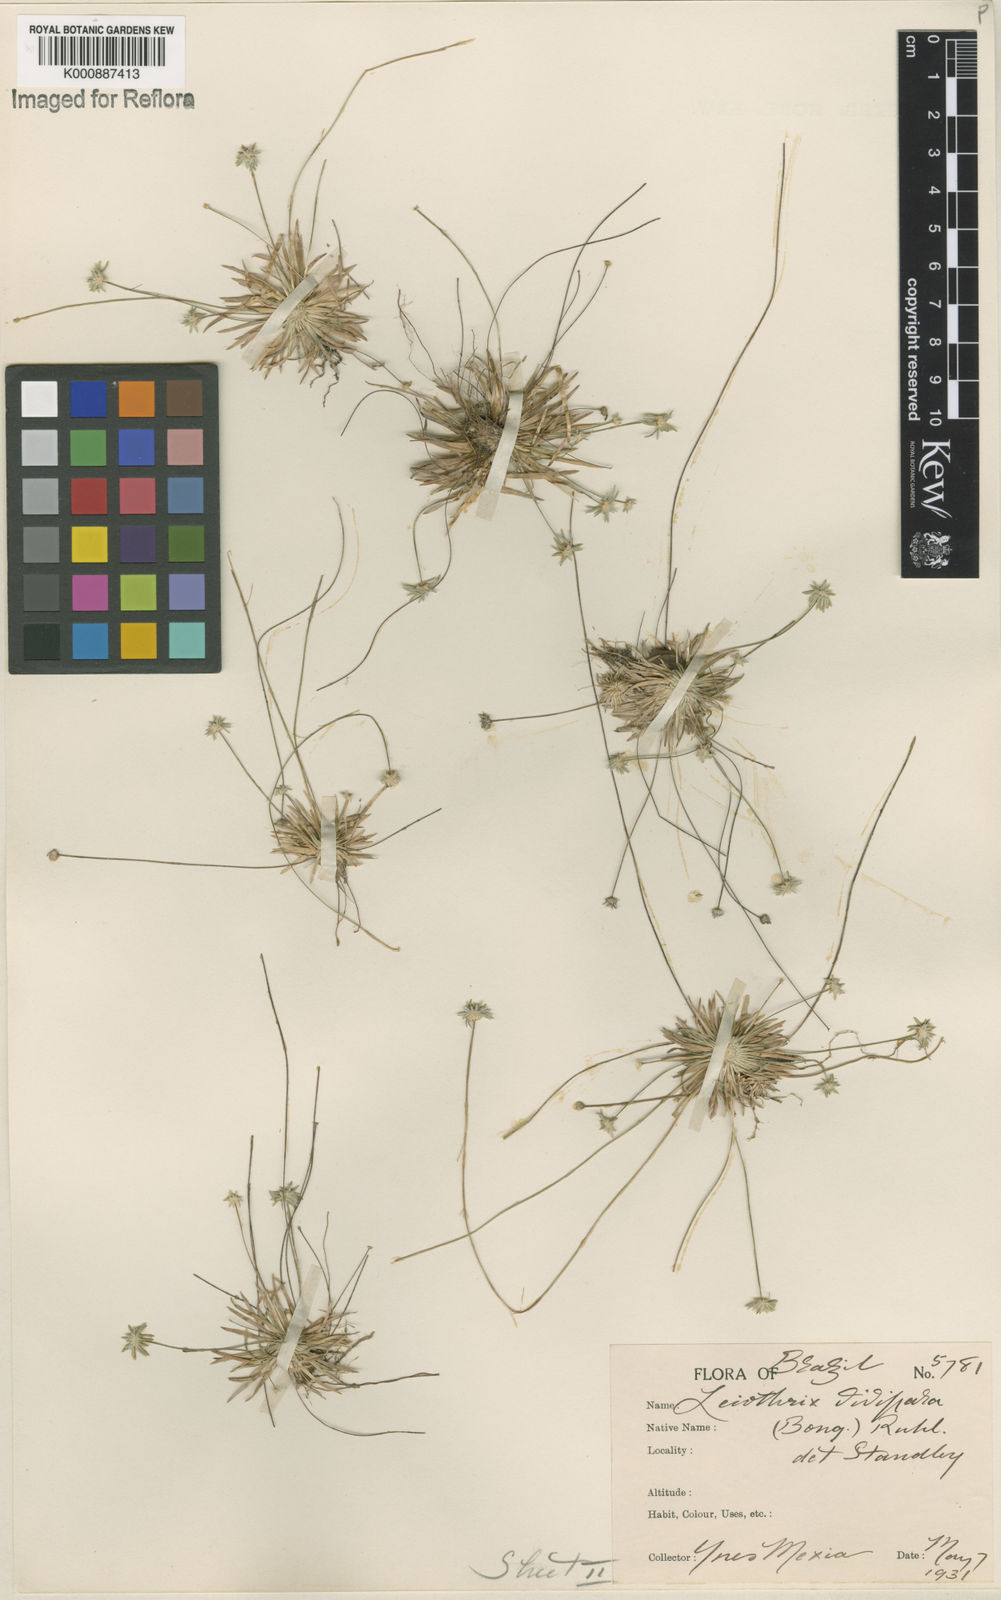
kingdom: Plantae
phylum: Tracheophyta
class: Liliopsida
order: Poales
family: Eriocaulaceae
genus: Leiothrix
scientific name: Leiothrix flagellaris
